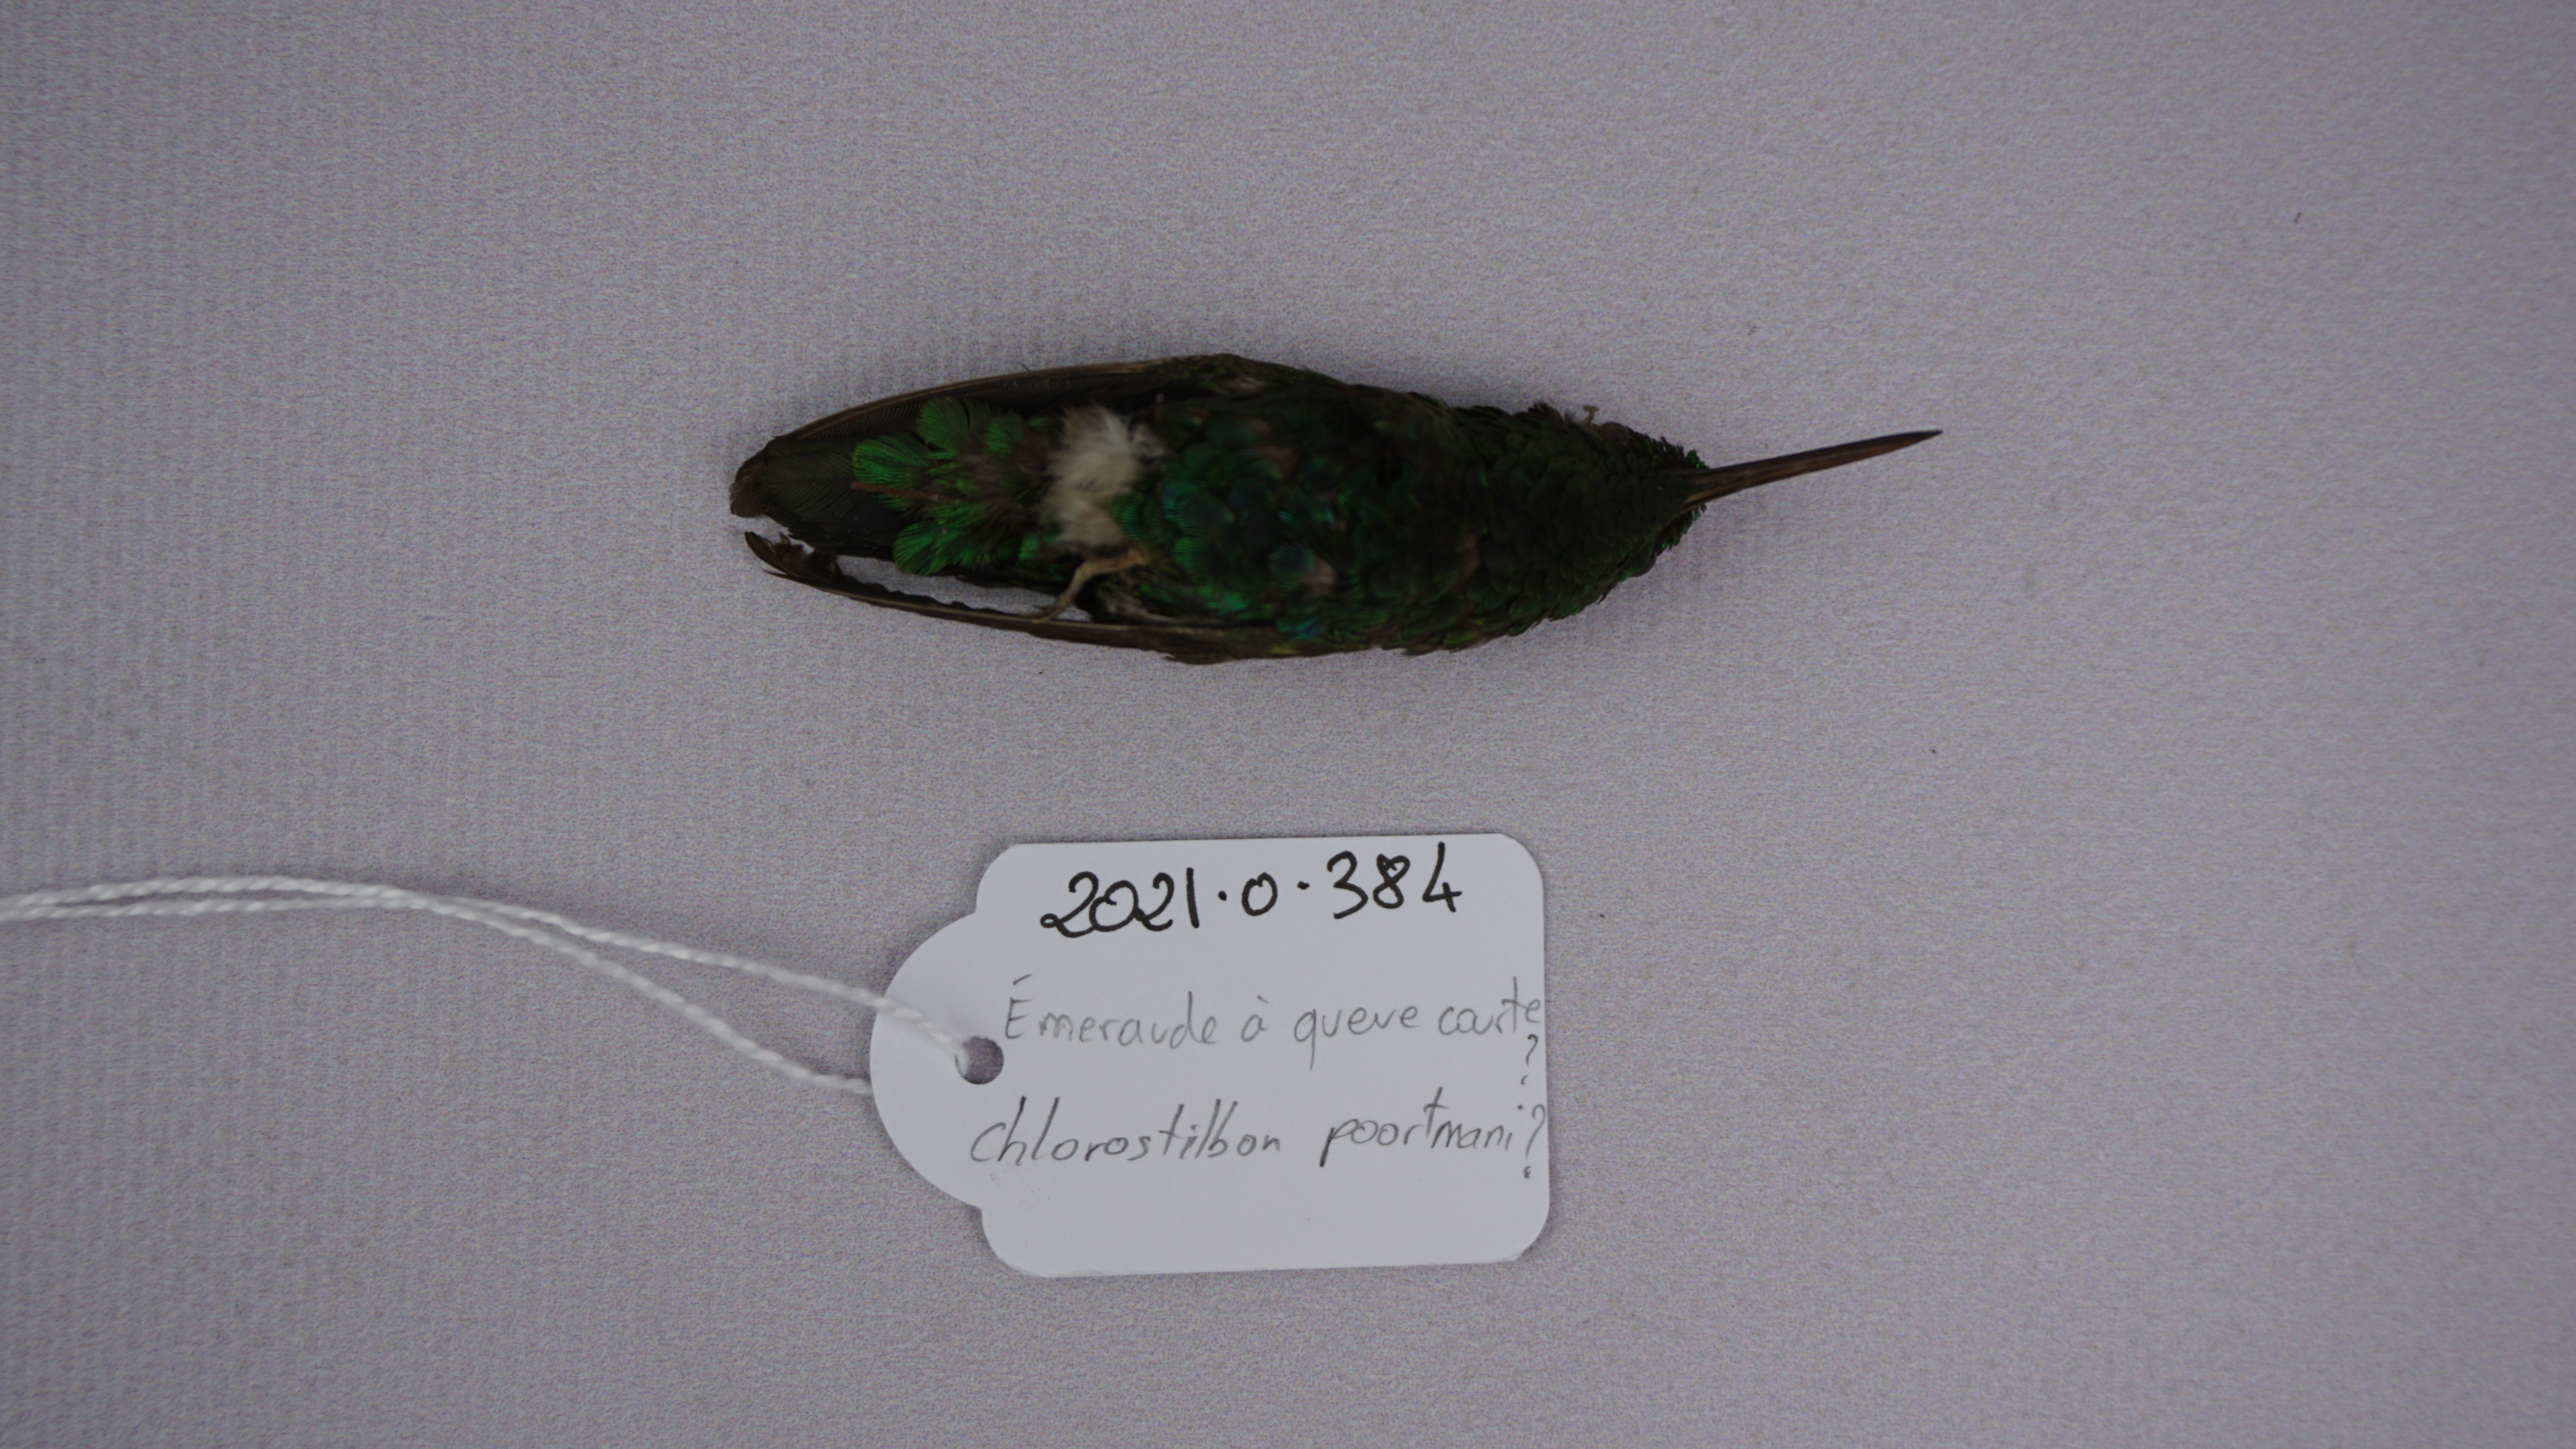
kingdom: Animalia
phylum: Chordata
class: Aves
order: Apodiformes
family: Trochilidae
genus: Chlorostilbon
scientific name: Chlorostilbon poortmani
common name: Short-tailed emerald
